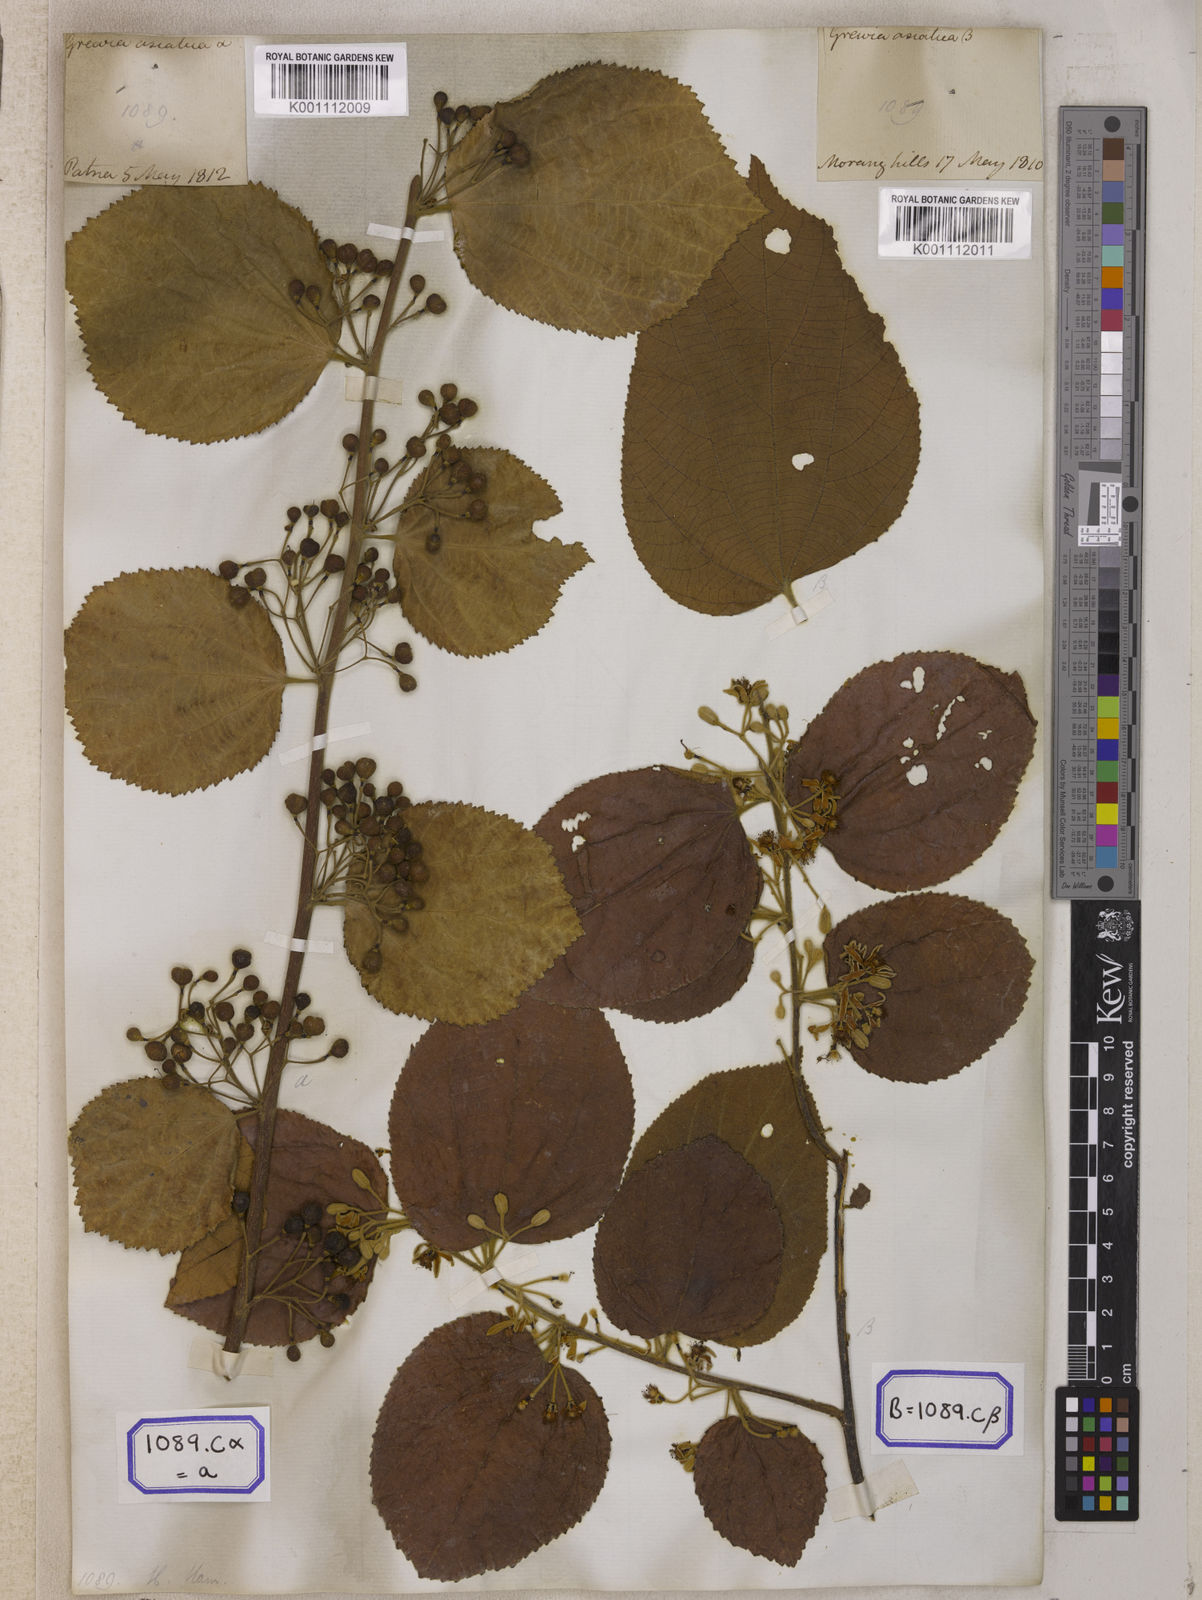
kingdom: Plantae
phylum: Tracheophyta
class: Magnoliopsida
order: Malvales
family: Malvaceae
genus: Grewia
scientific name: Grewia asiatica
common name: Phalsa
